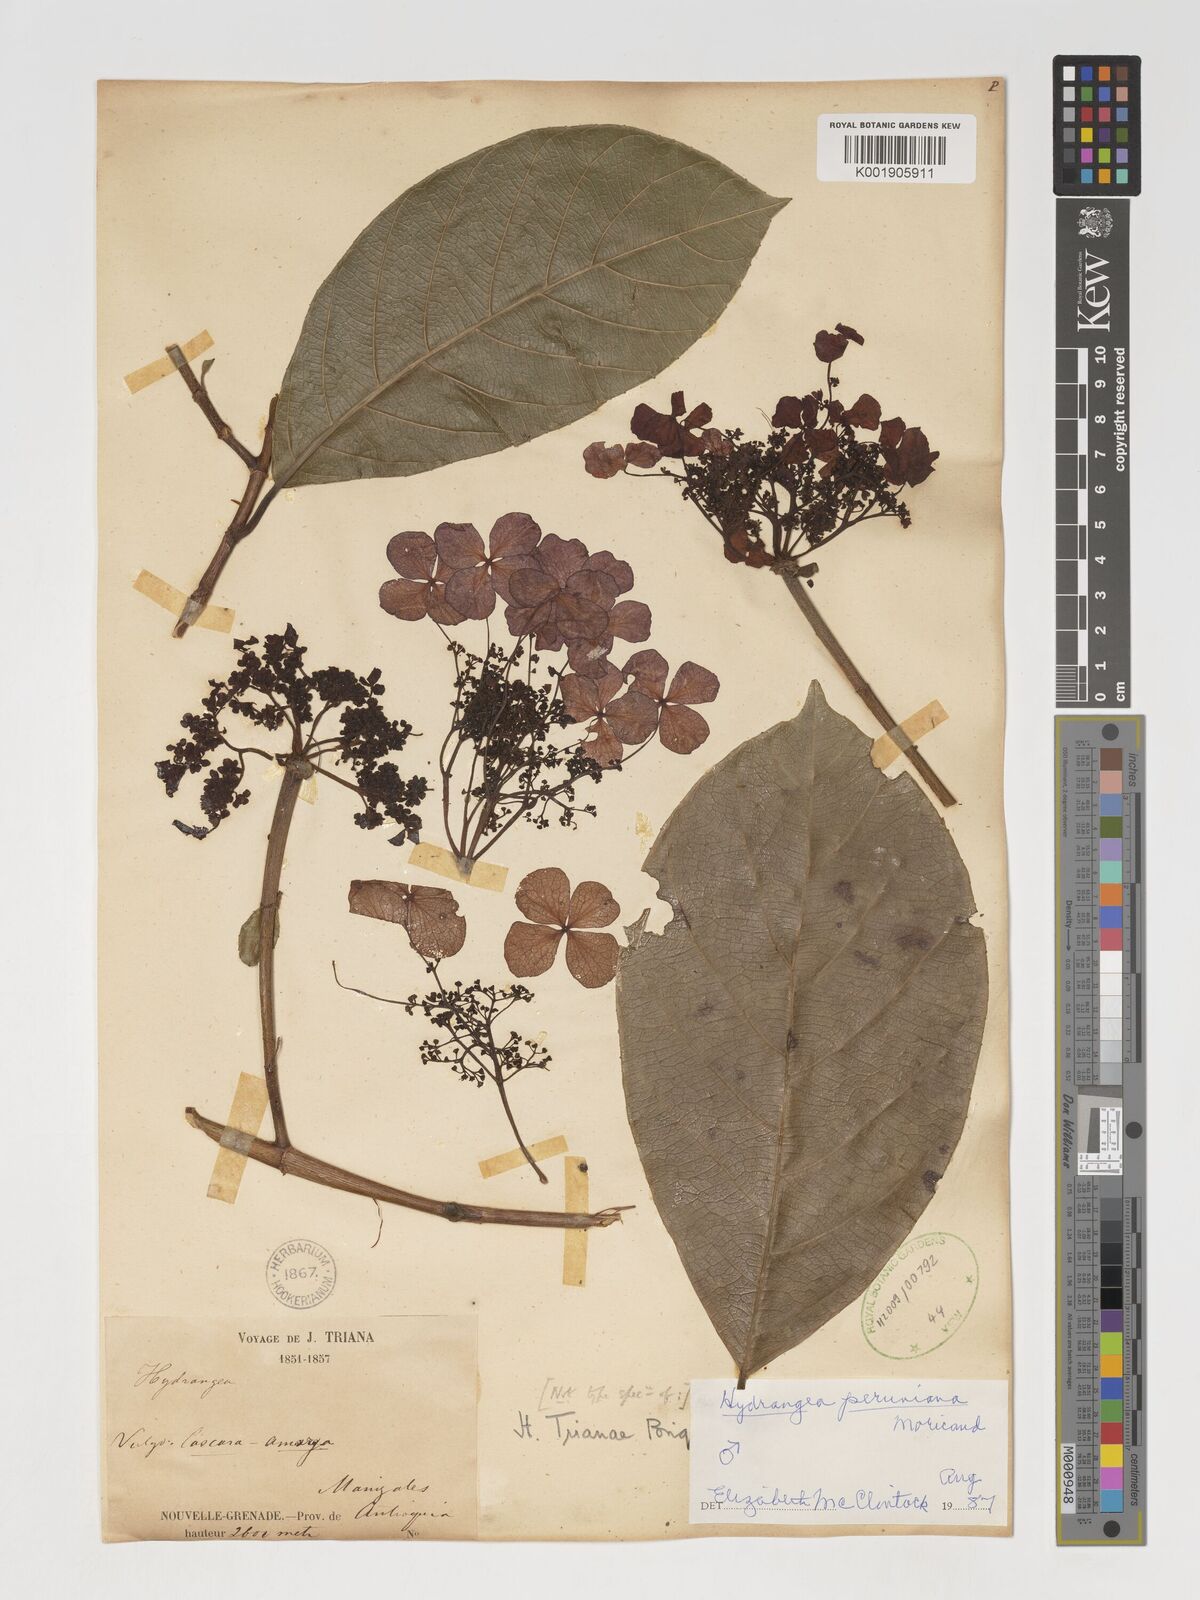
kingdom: Plantae
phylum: Tracheophyta
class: Magnoliopsida
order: Cornales
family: Hydrangeaceae
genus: Hydrangea
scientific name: Hydrangea peruviana
